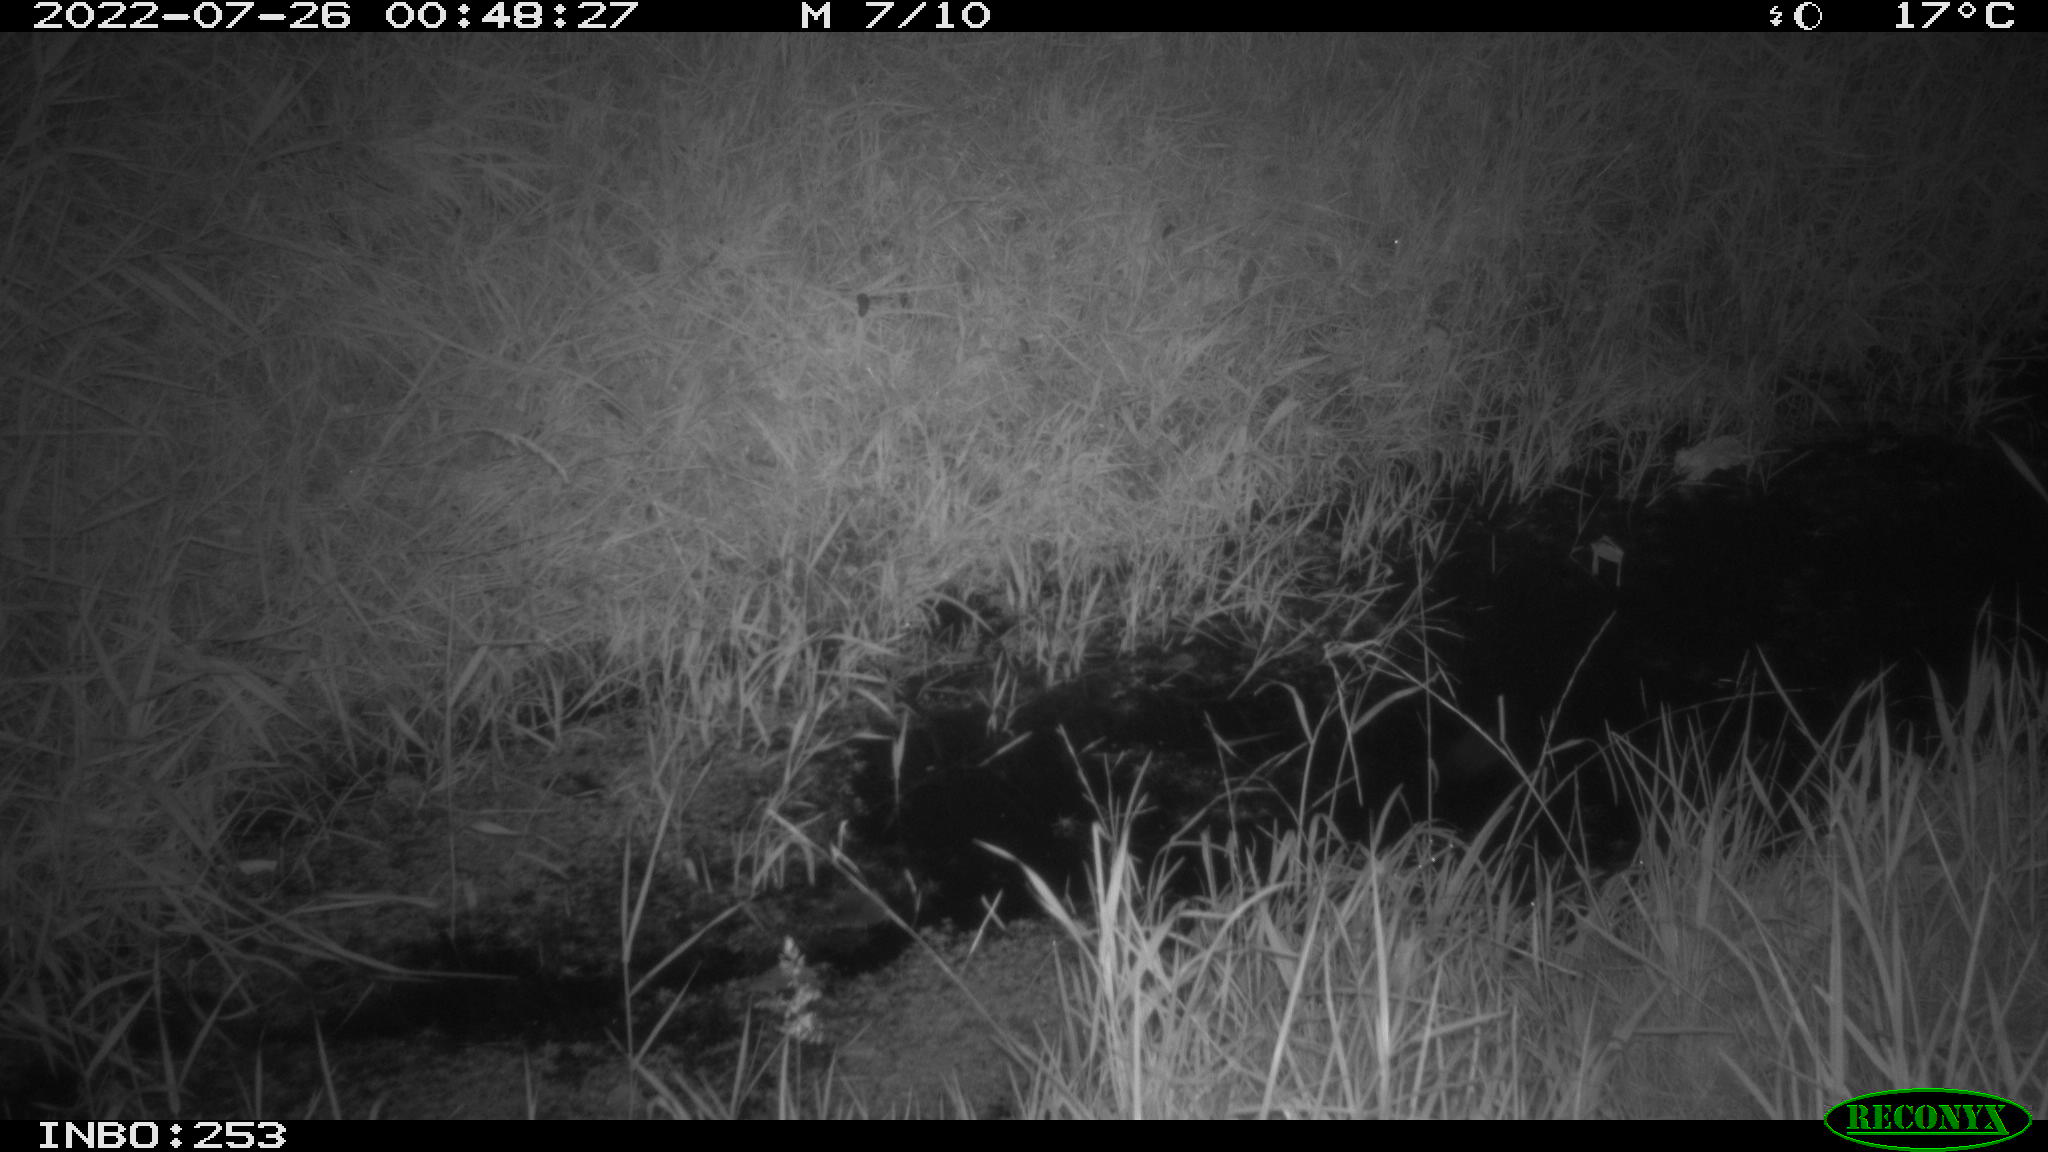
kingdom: Animalia
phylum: Chordata
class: Mammalia
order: Lagomorpha
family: Leporidae
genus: Oryctolagus
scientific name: Oryctolagus cuniculus
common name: European rabbit
